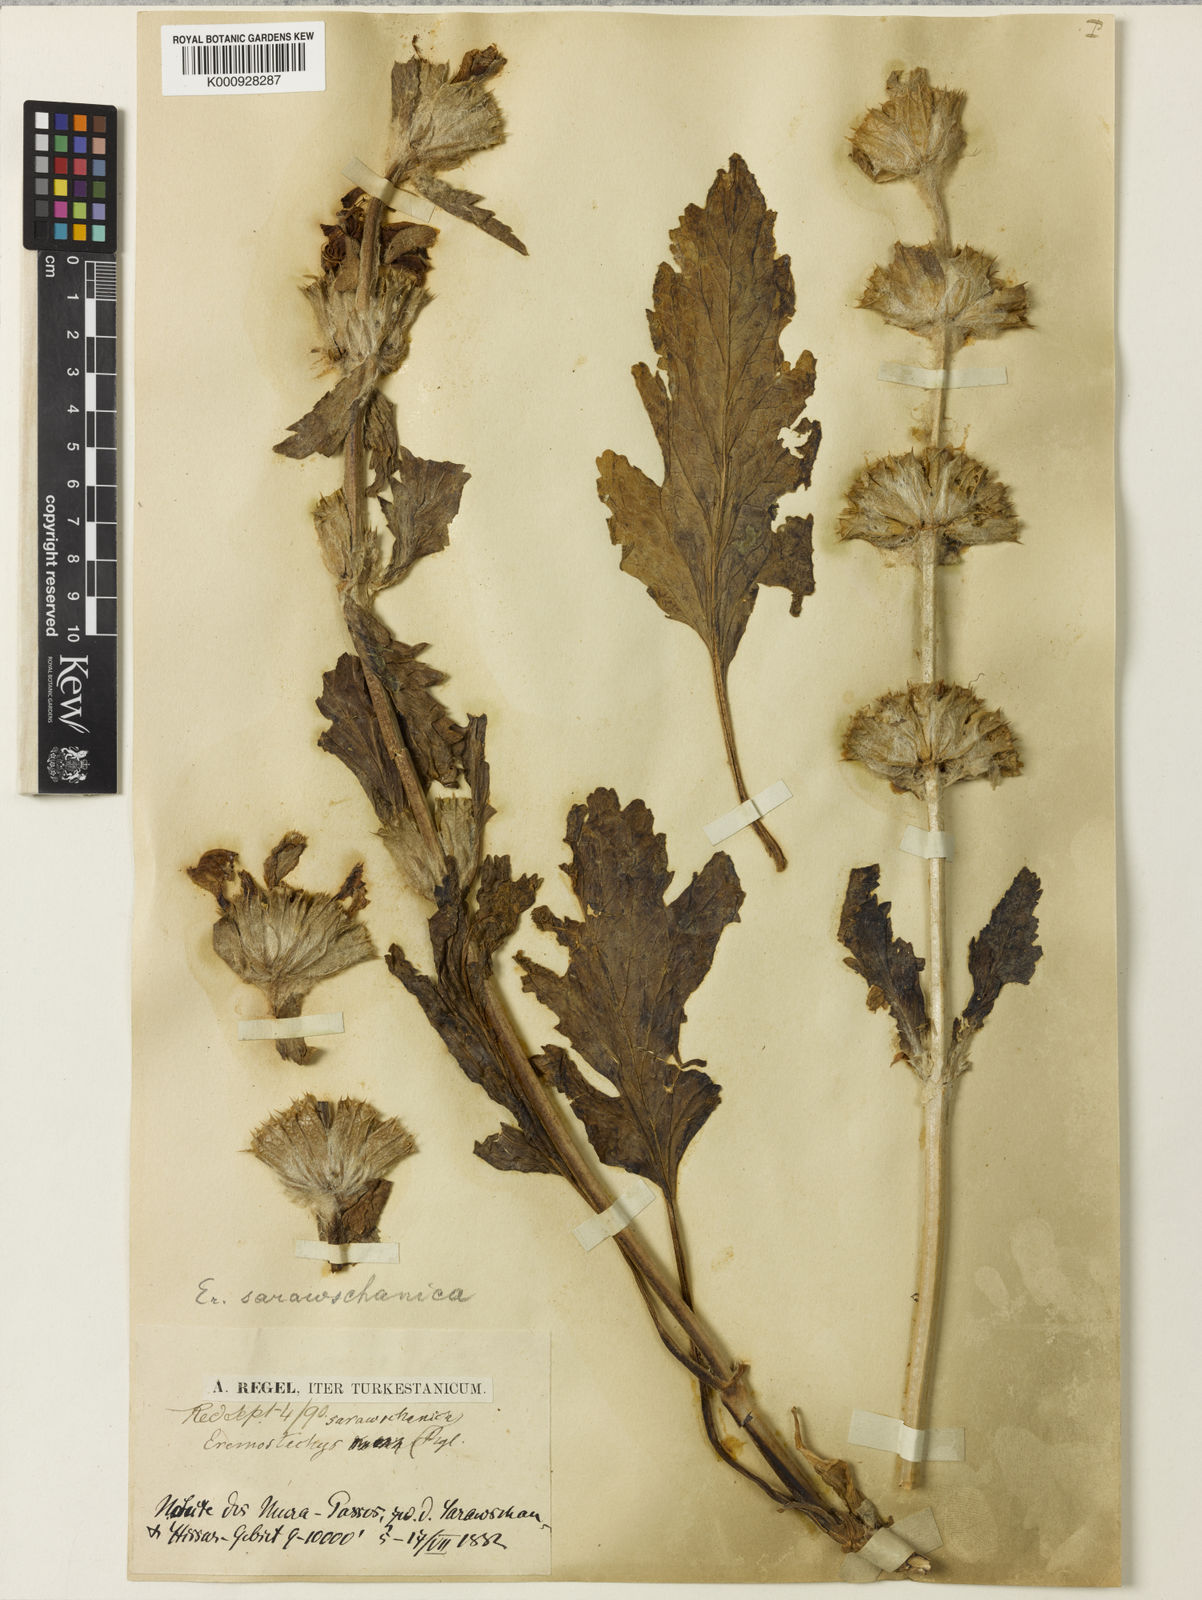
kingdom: Plantae
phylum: Tracheophyta
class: Magnoliopsida
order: Lamiales
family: Lamiaceae
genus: Phlomoides
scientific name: Phlomoides
